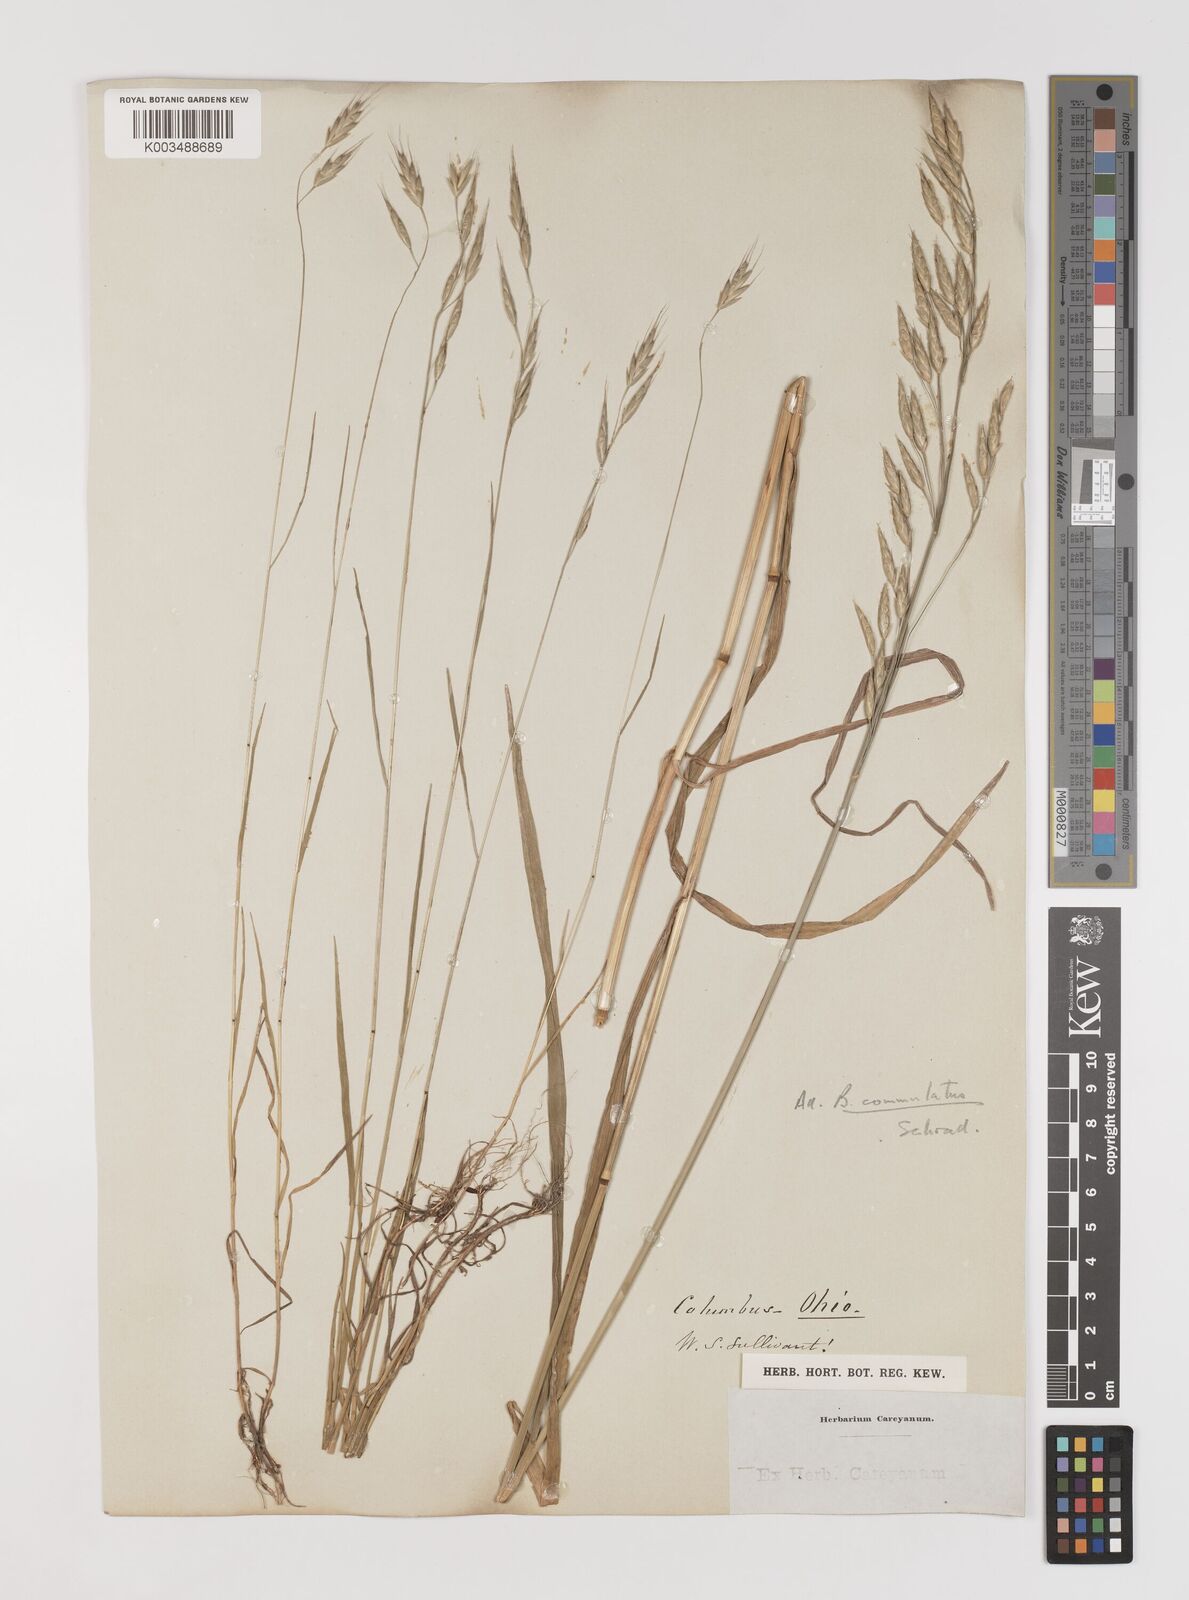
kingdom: Plantae
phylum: Tracheophyta
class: Liliopsida
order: Poales
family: Poaceae
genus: Bromus
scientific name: Bromus racemosus
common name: Bald brome
